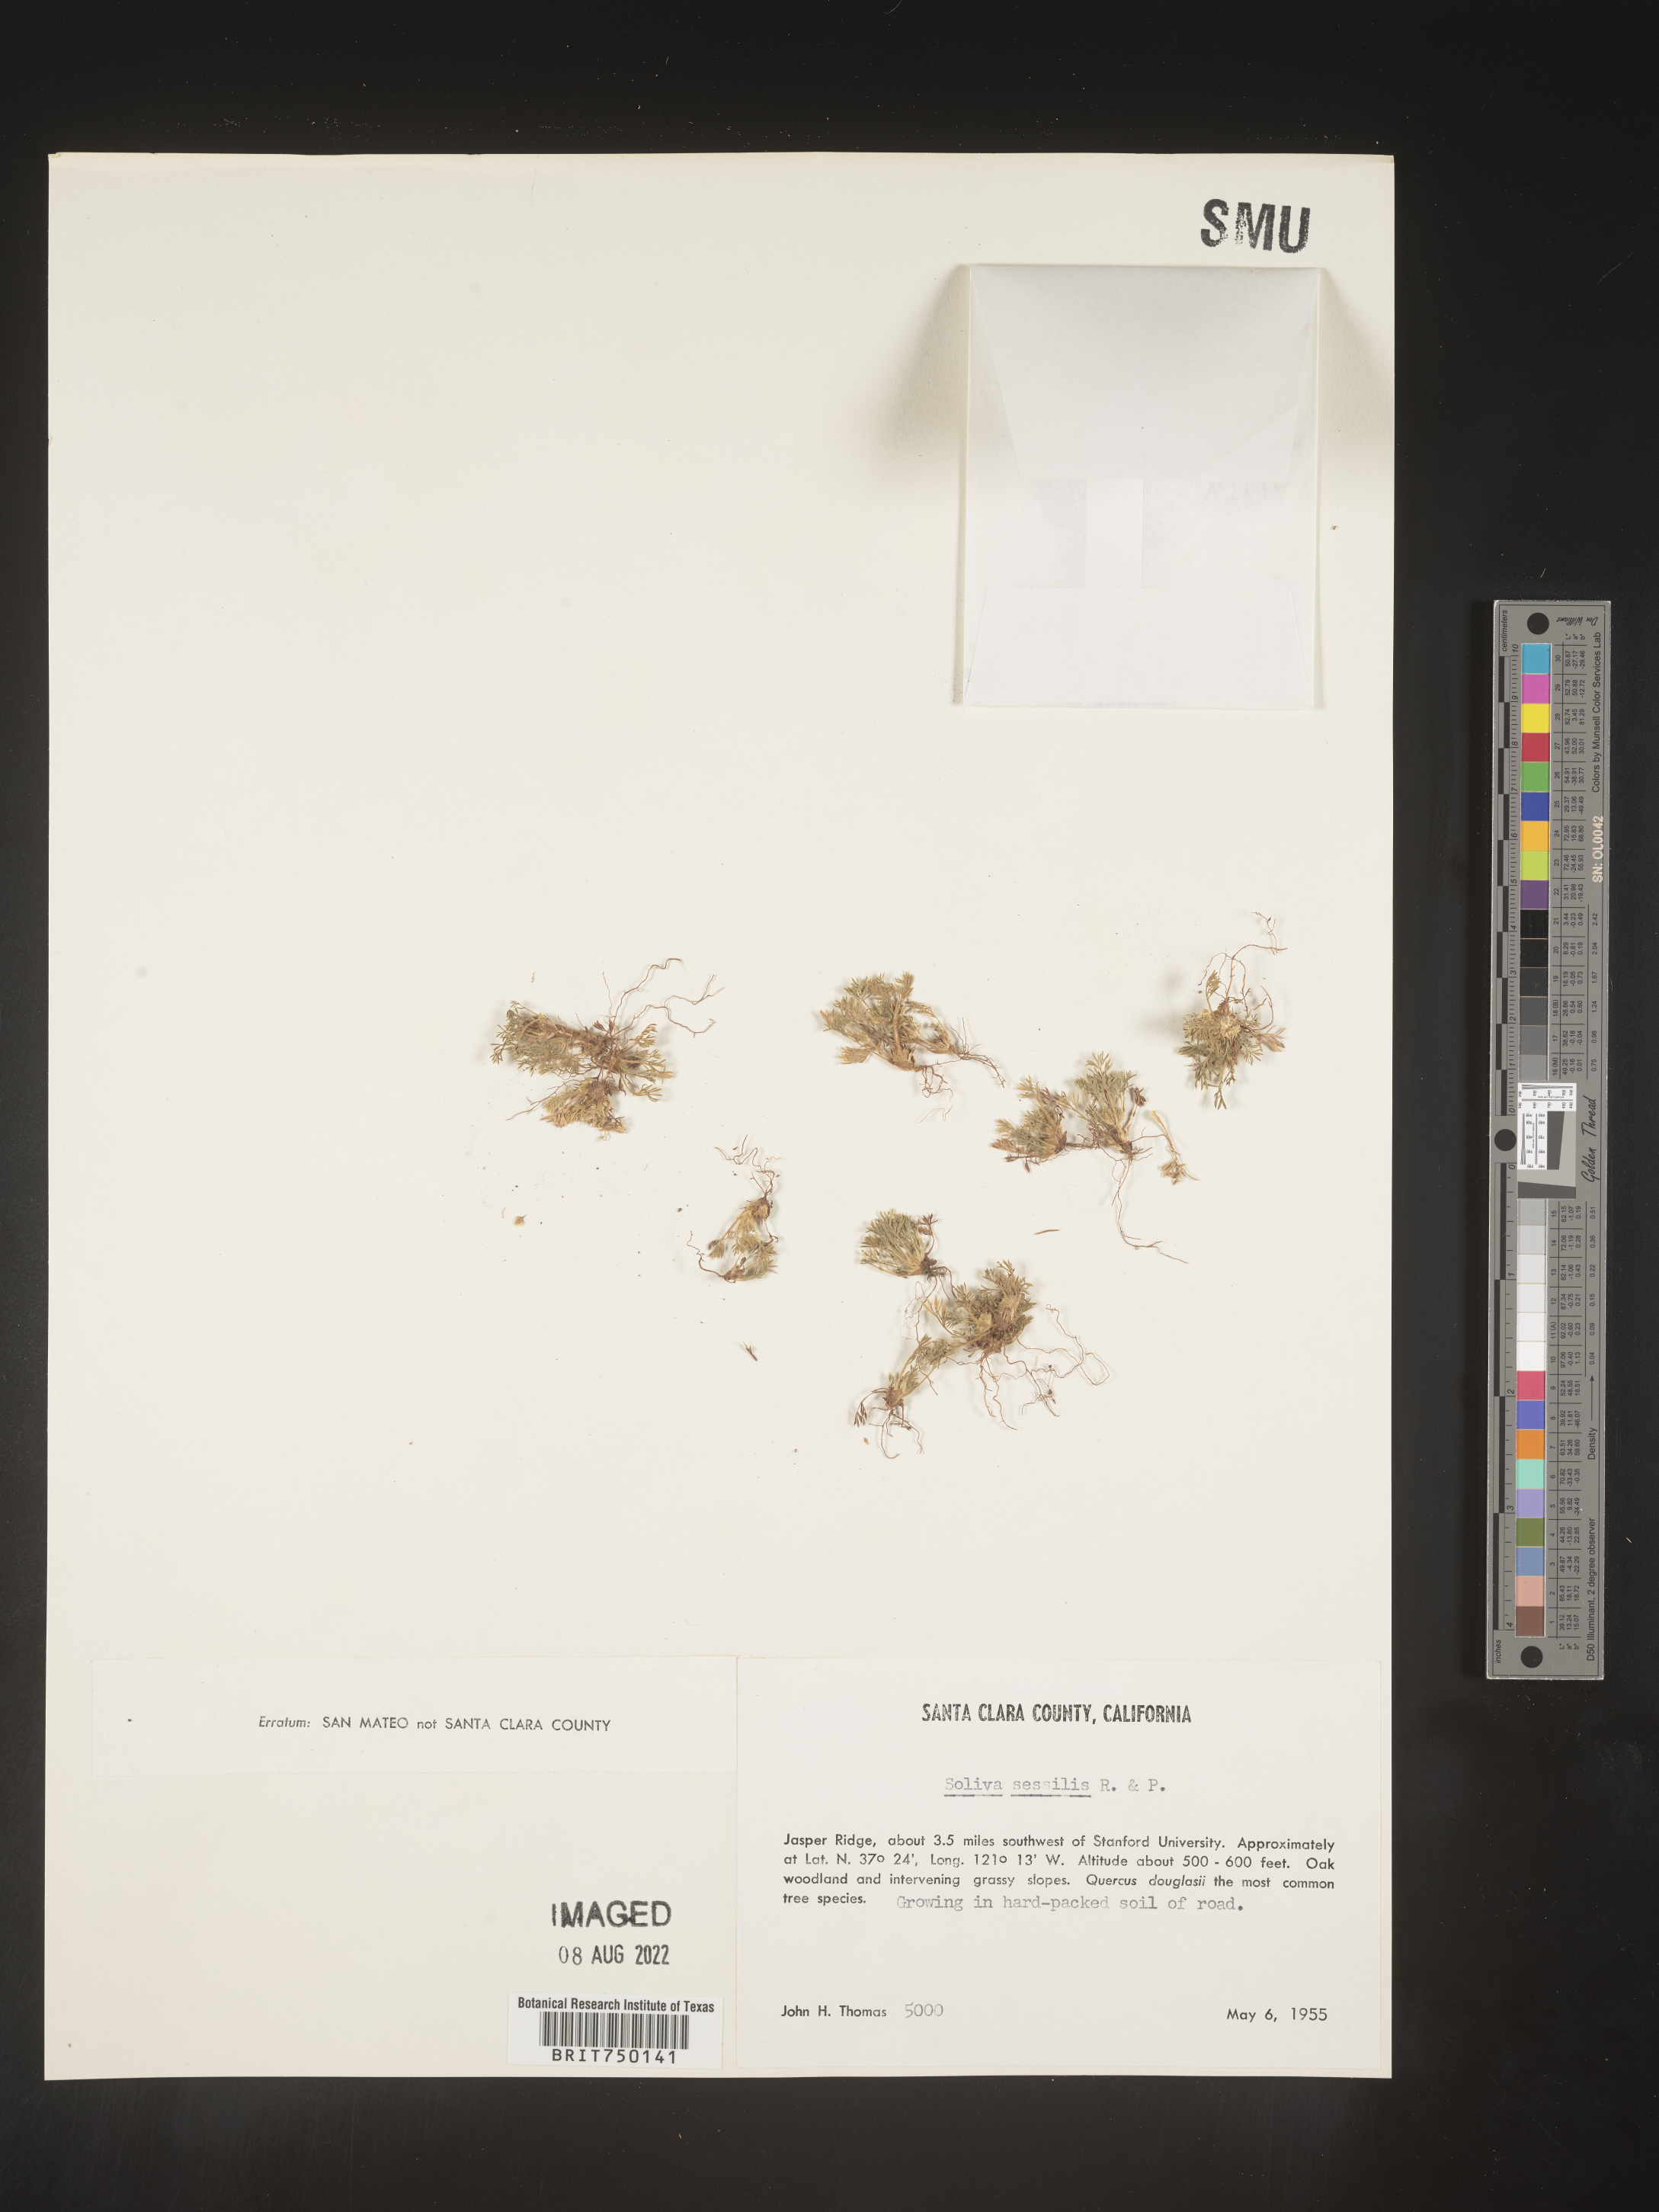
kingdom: Plantae
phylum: Tracheophyta
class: Magnoliopsida
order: Asterales
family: Asteraceae
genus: Soliva
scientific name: Soliva
